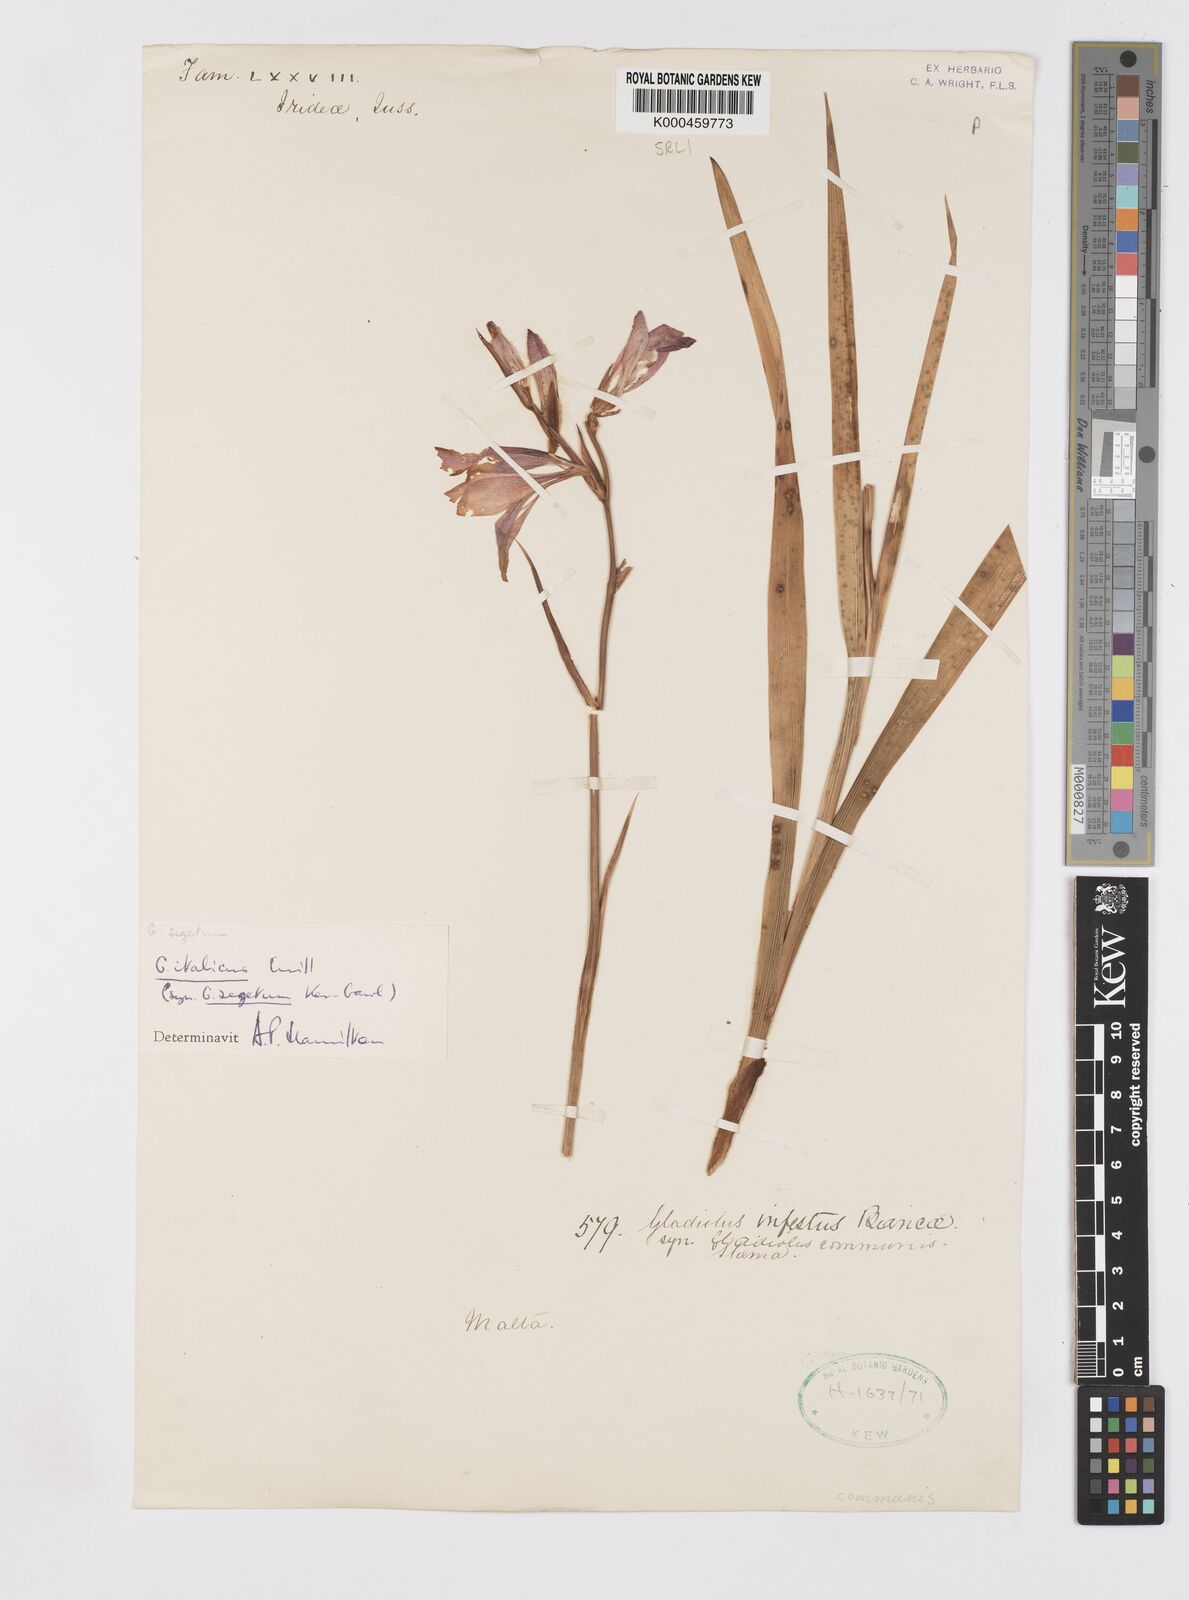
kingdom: Plantae
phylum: Tracheophyta
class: Liliopsida
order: Asparagales
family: Iridaceae
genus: Gladiolus
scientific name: Gladiolus italicus
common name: Field gladiolus
